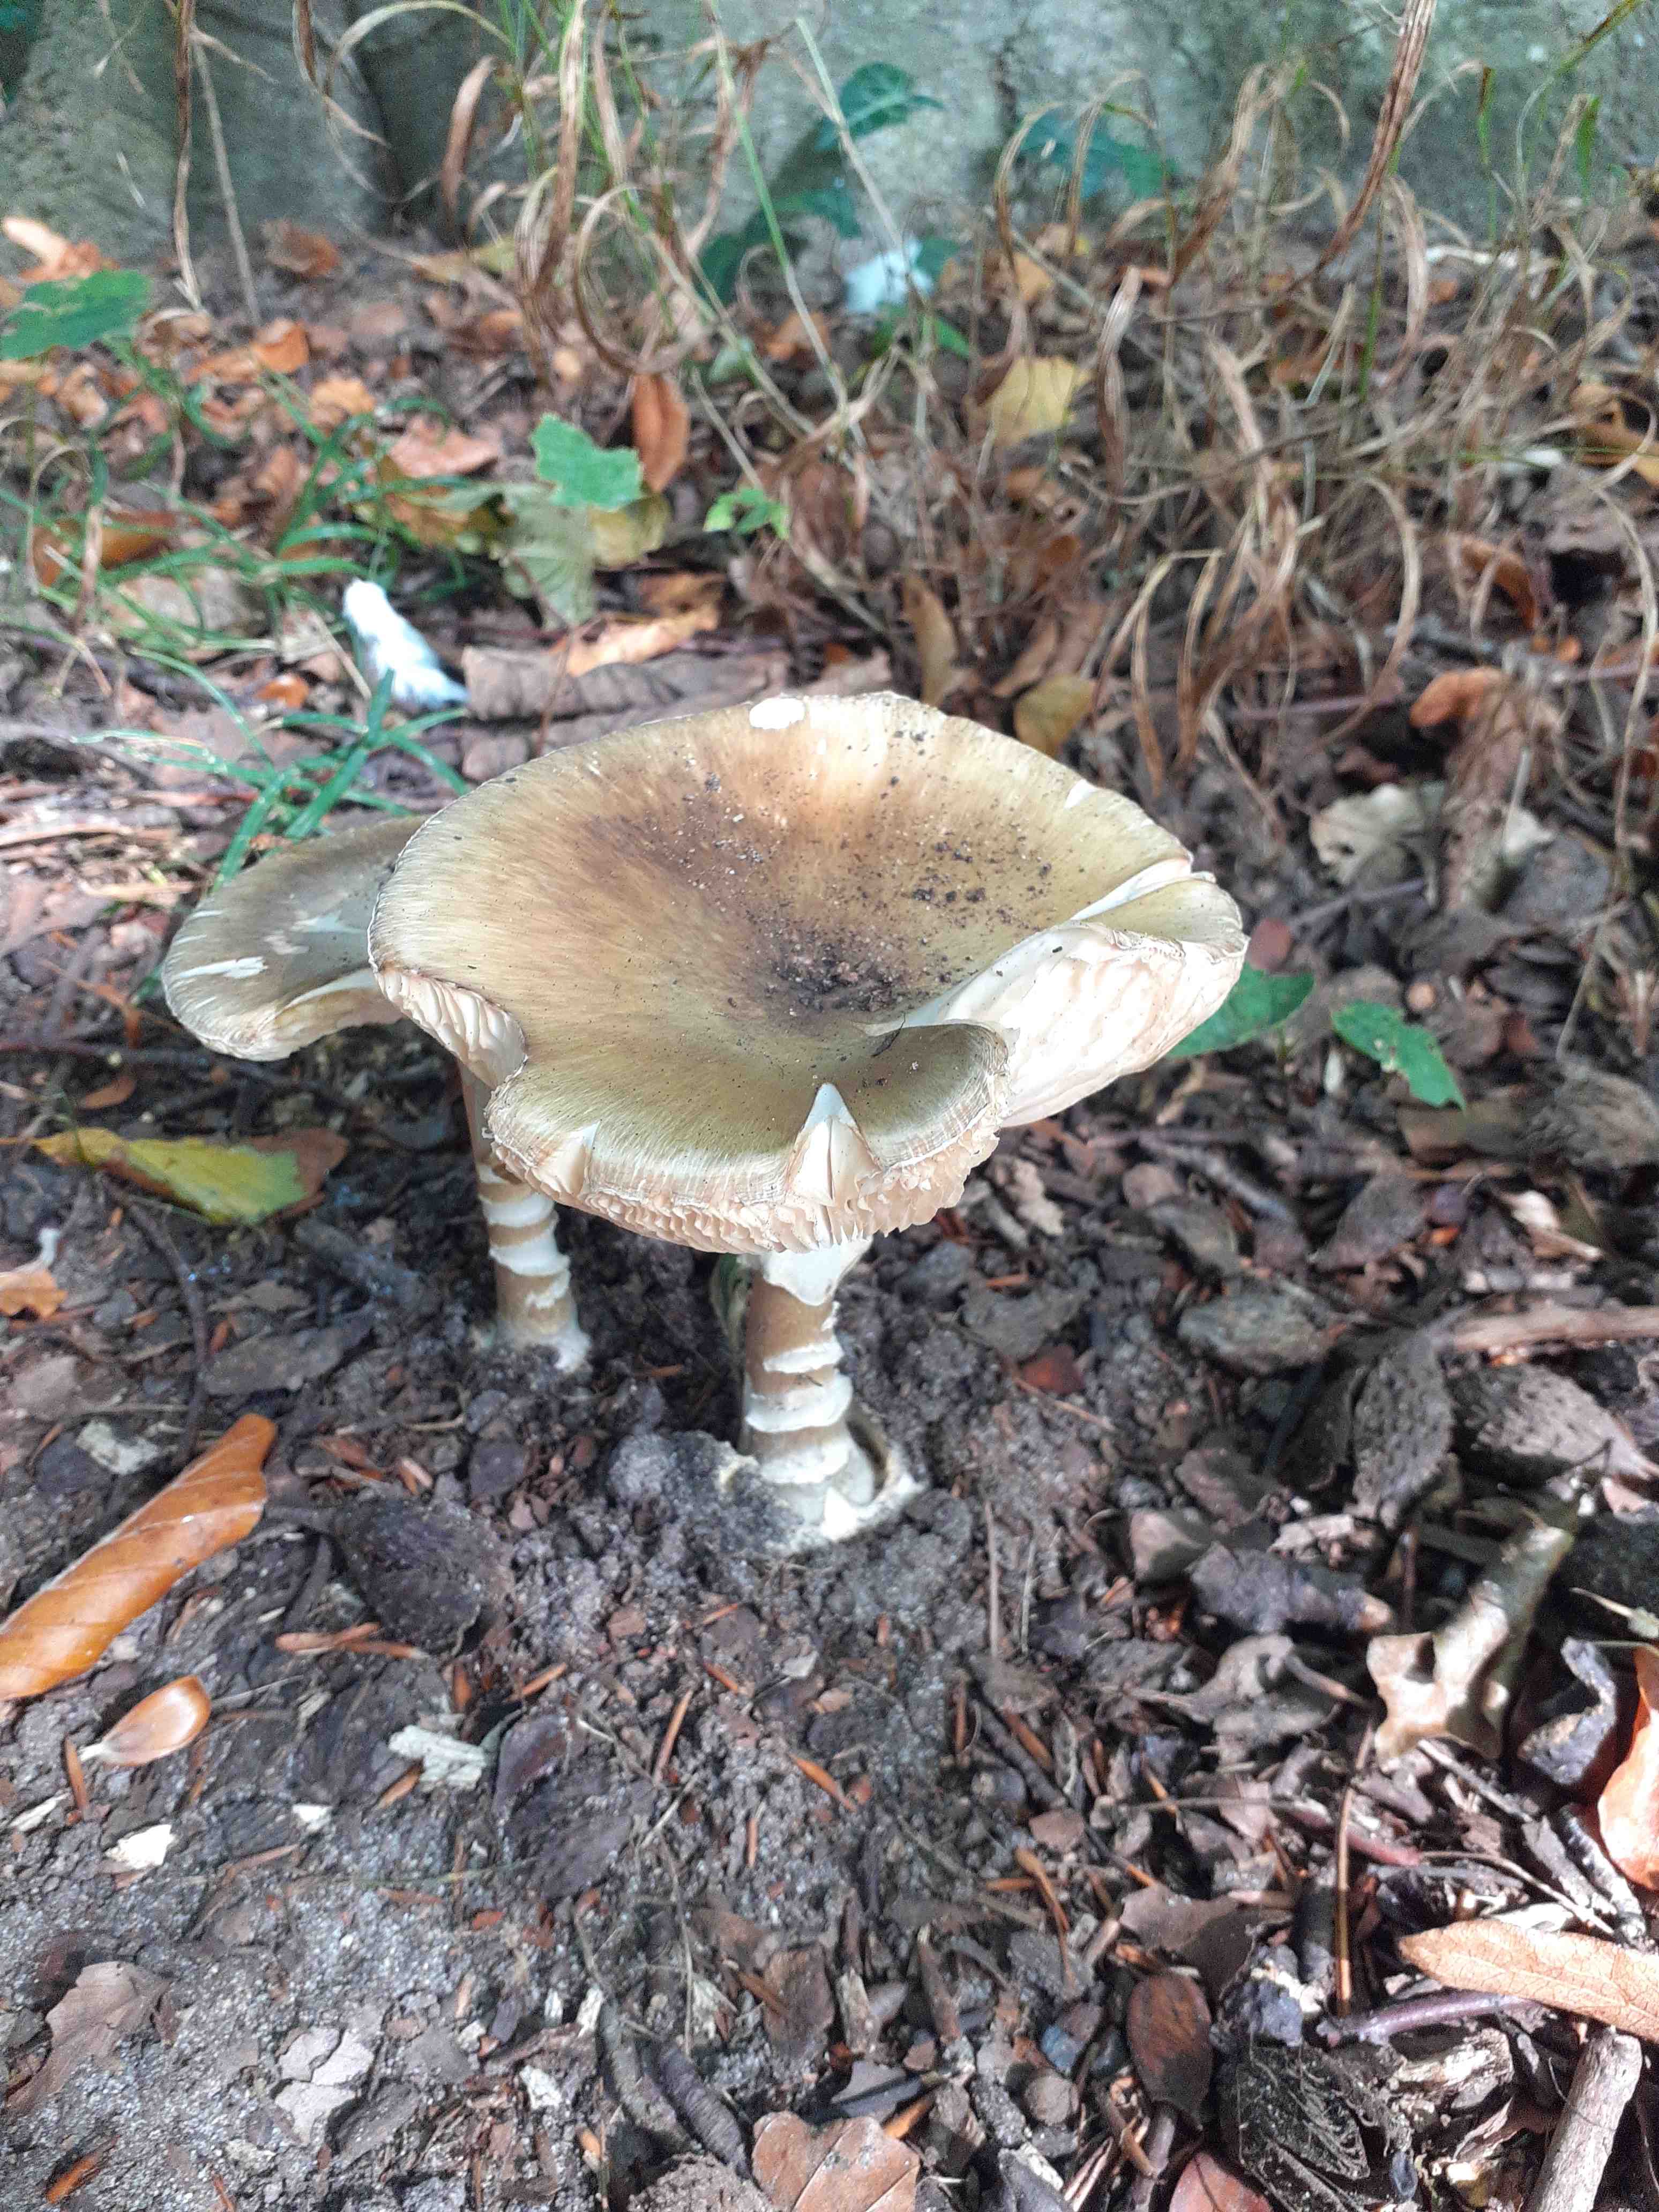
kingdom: Fungi
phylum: Basidiomycota
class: Agaricomycetes
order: Agaricales
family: Amanitaceae
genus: Amanita
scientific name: Amanita phalloides
